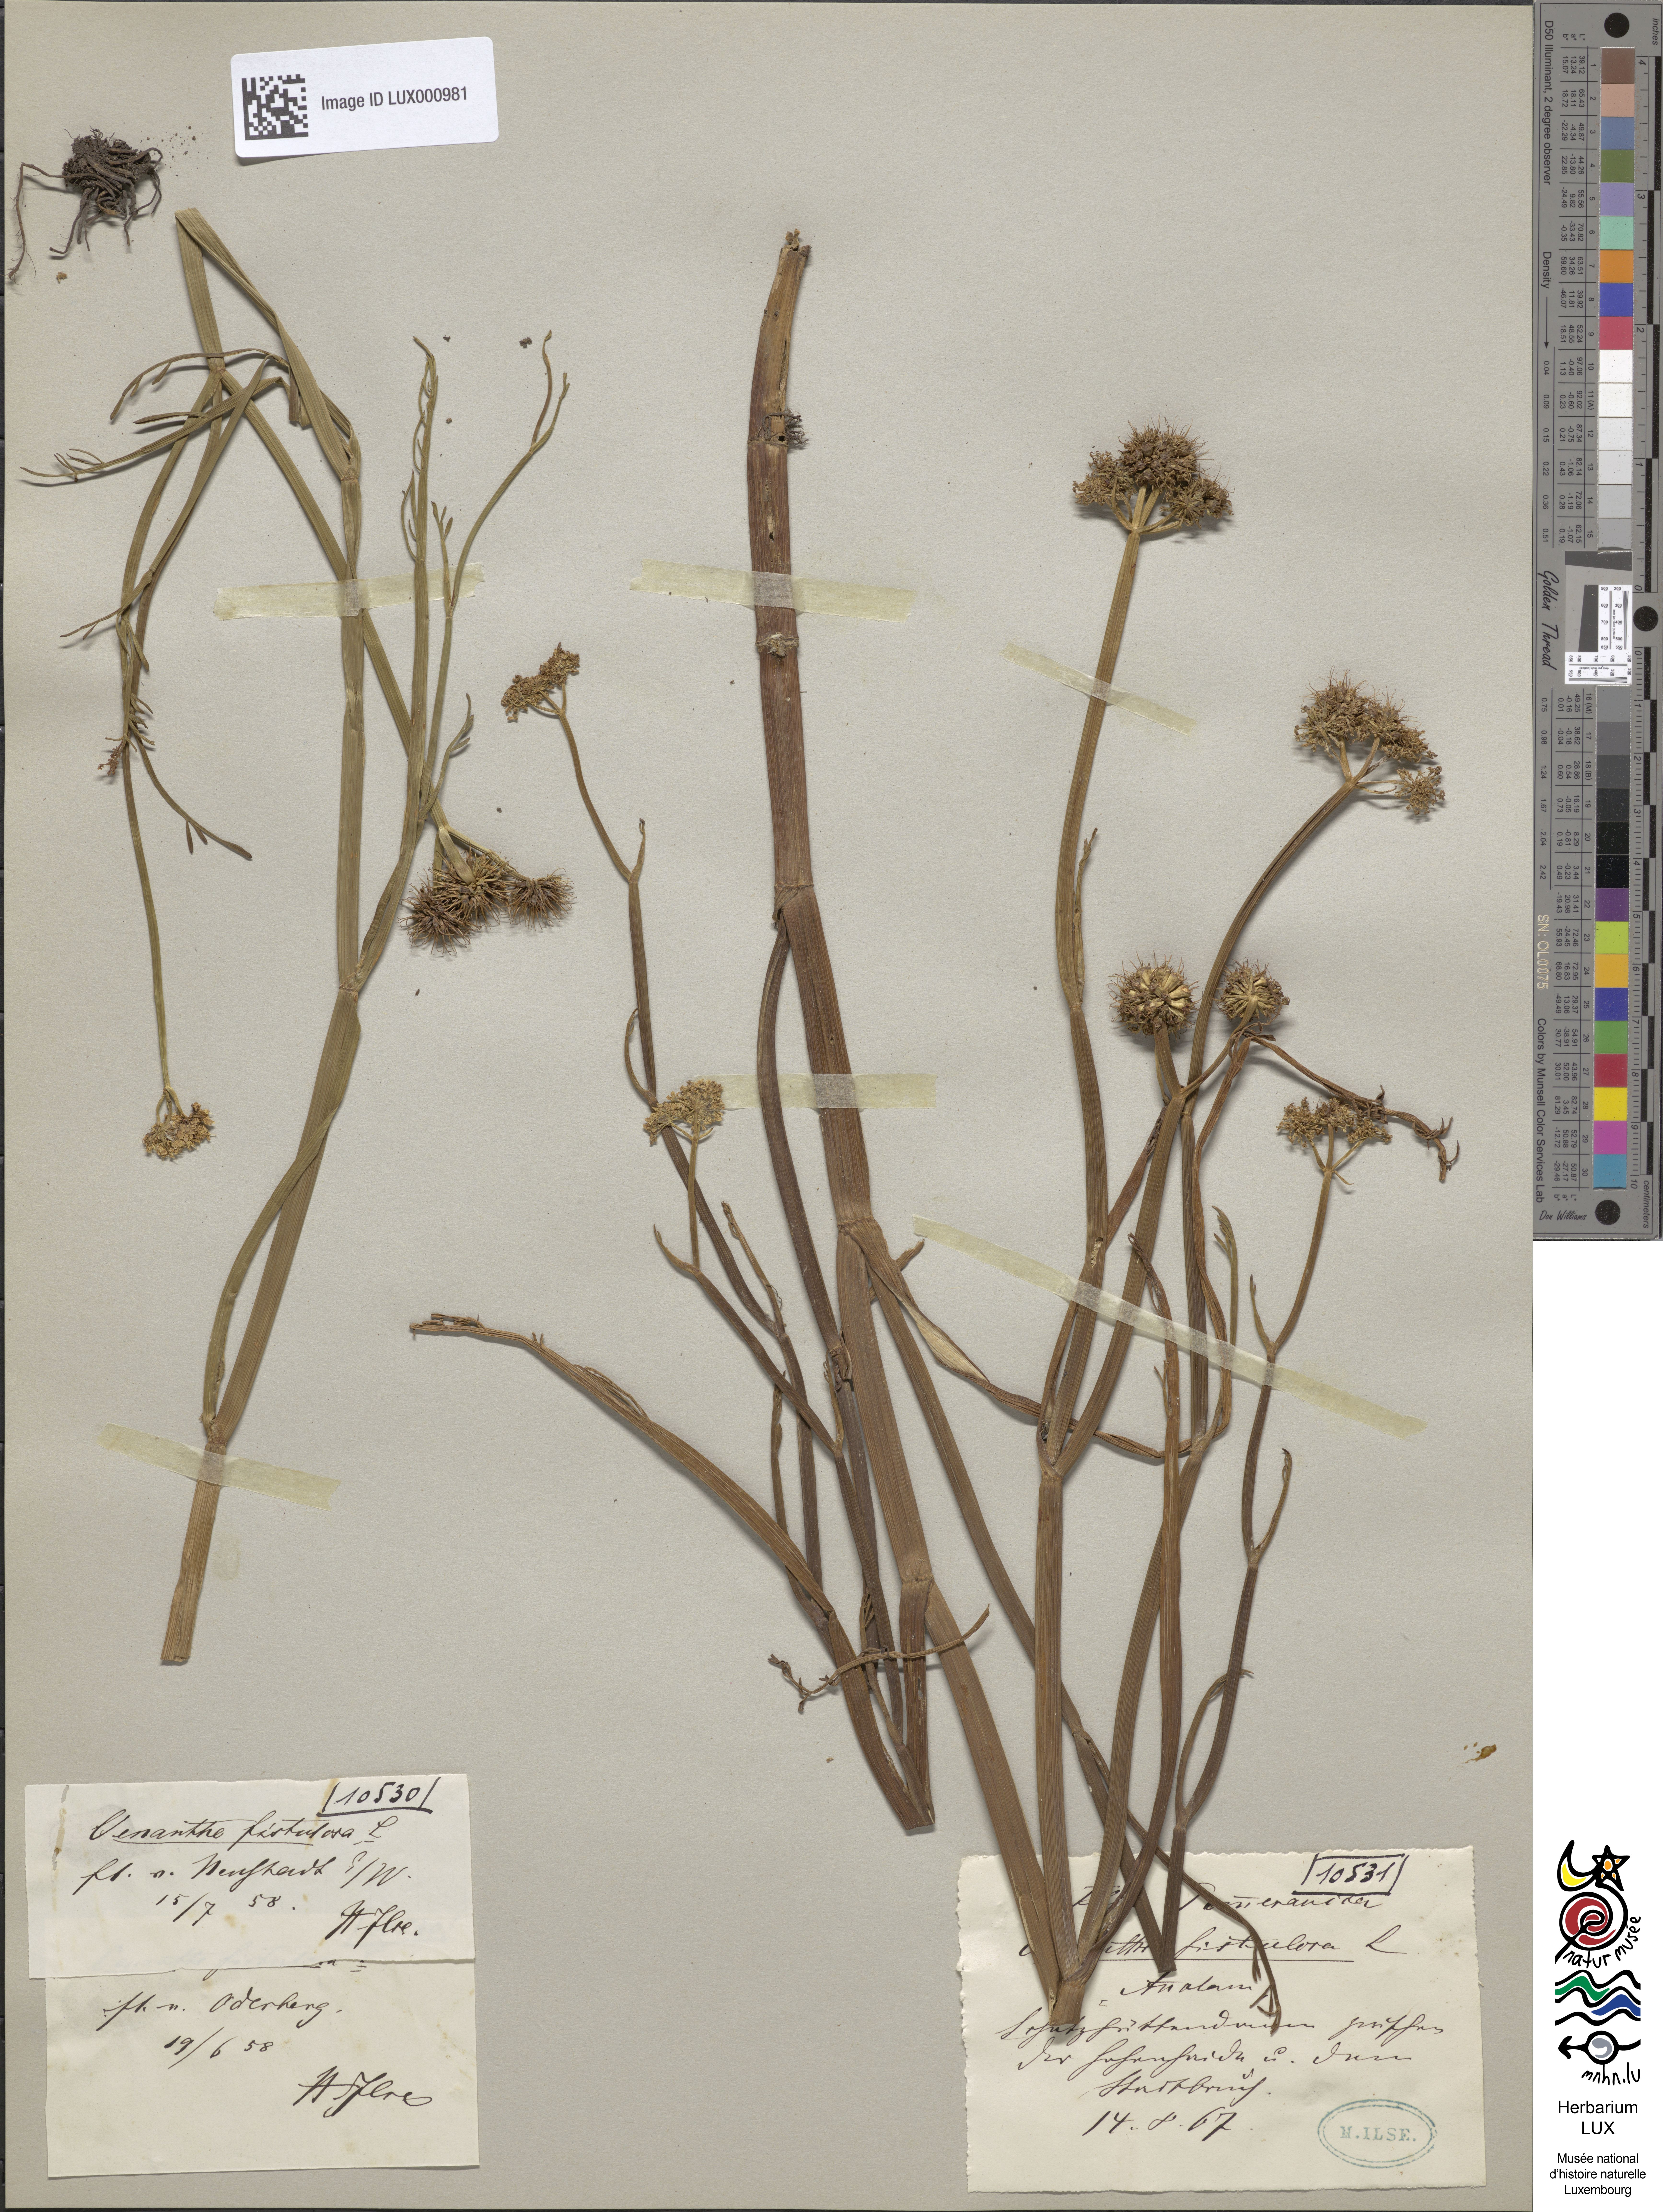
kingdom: Plantae
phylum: Tracheophyta
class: Magnoliopsida
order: Apiales
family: Apiaceae
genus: Oenanthe
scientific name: Oenanthe fistulosa
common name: Tubular water-dropwort
